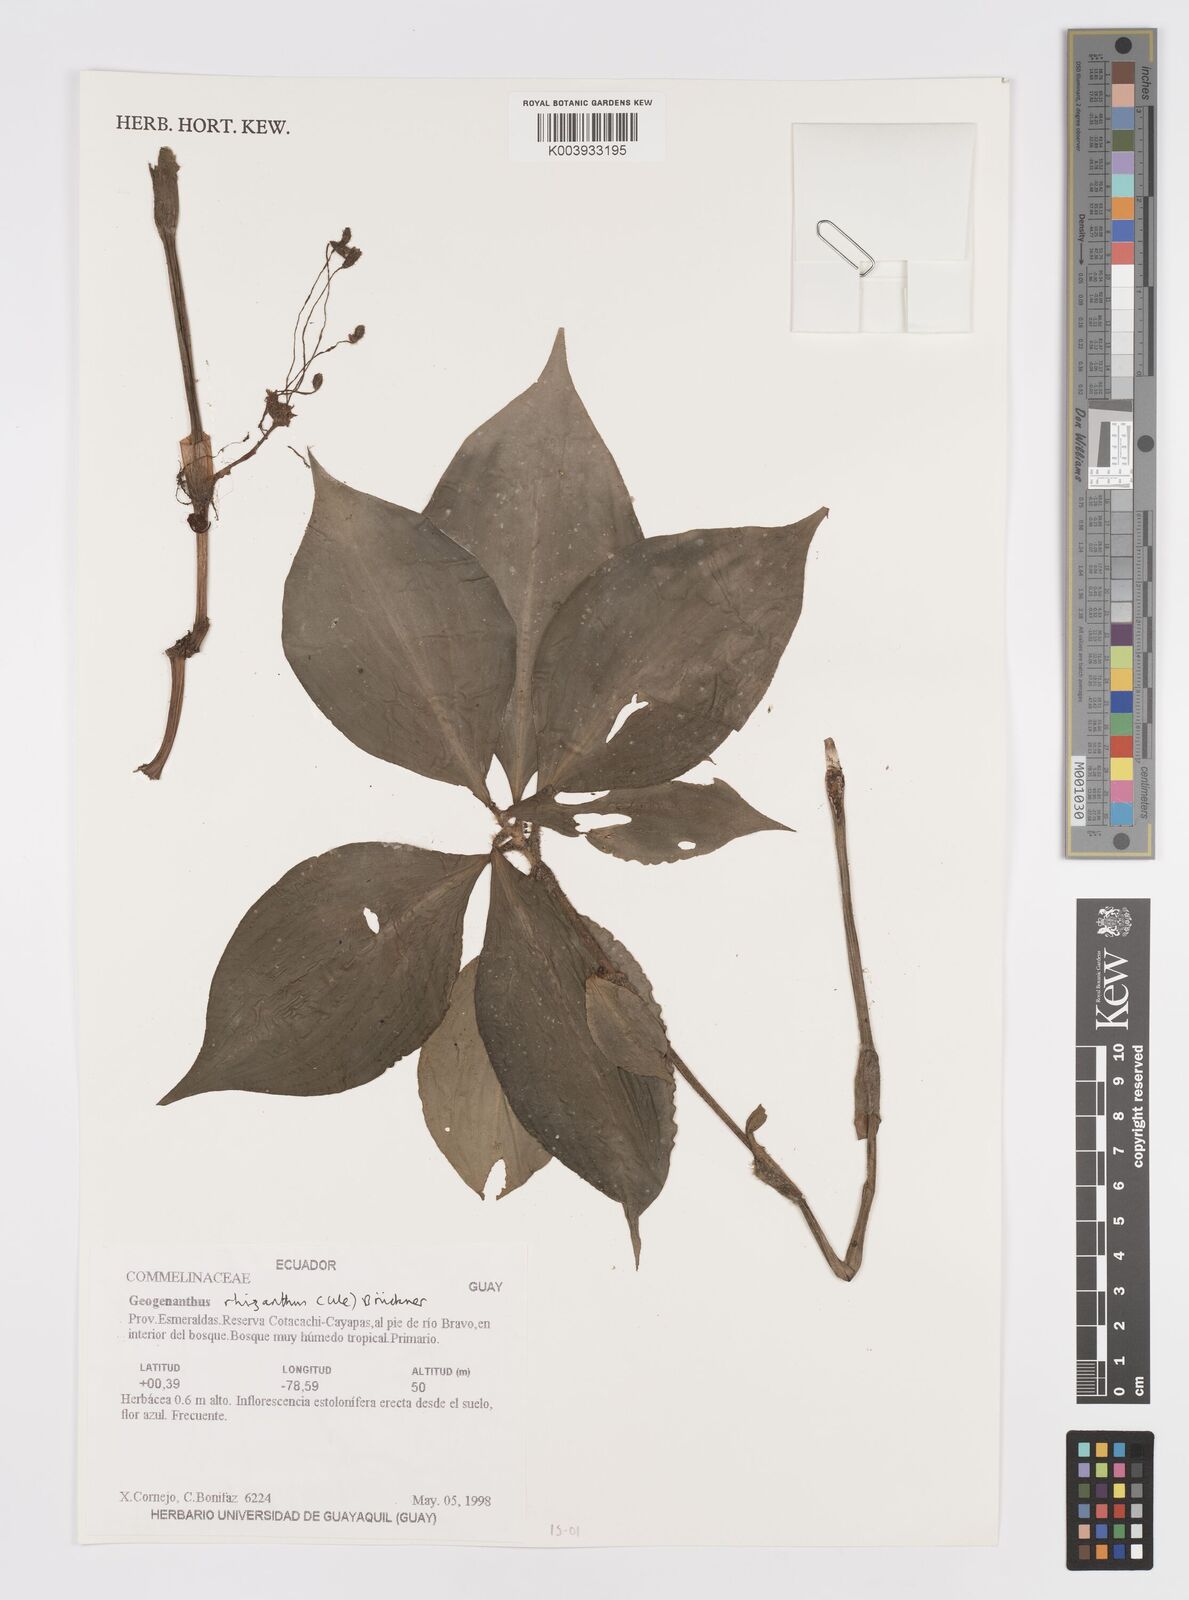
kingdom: Plantae
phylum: Tracheophyta
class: Liliopsida
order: Commelinales
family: Commelinaceae
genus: Geogenanthus
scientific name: Geogenanthus rhizanthus
